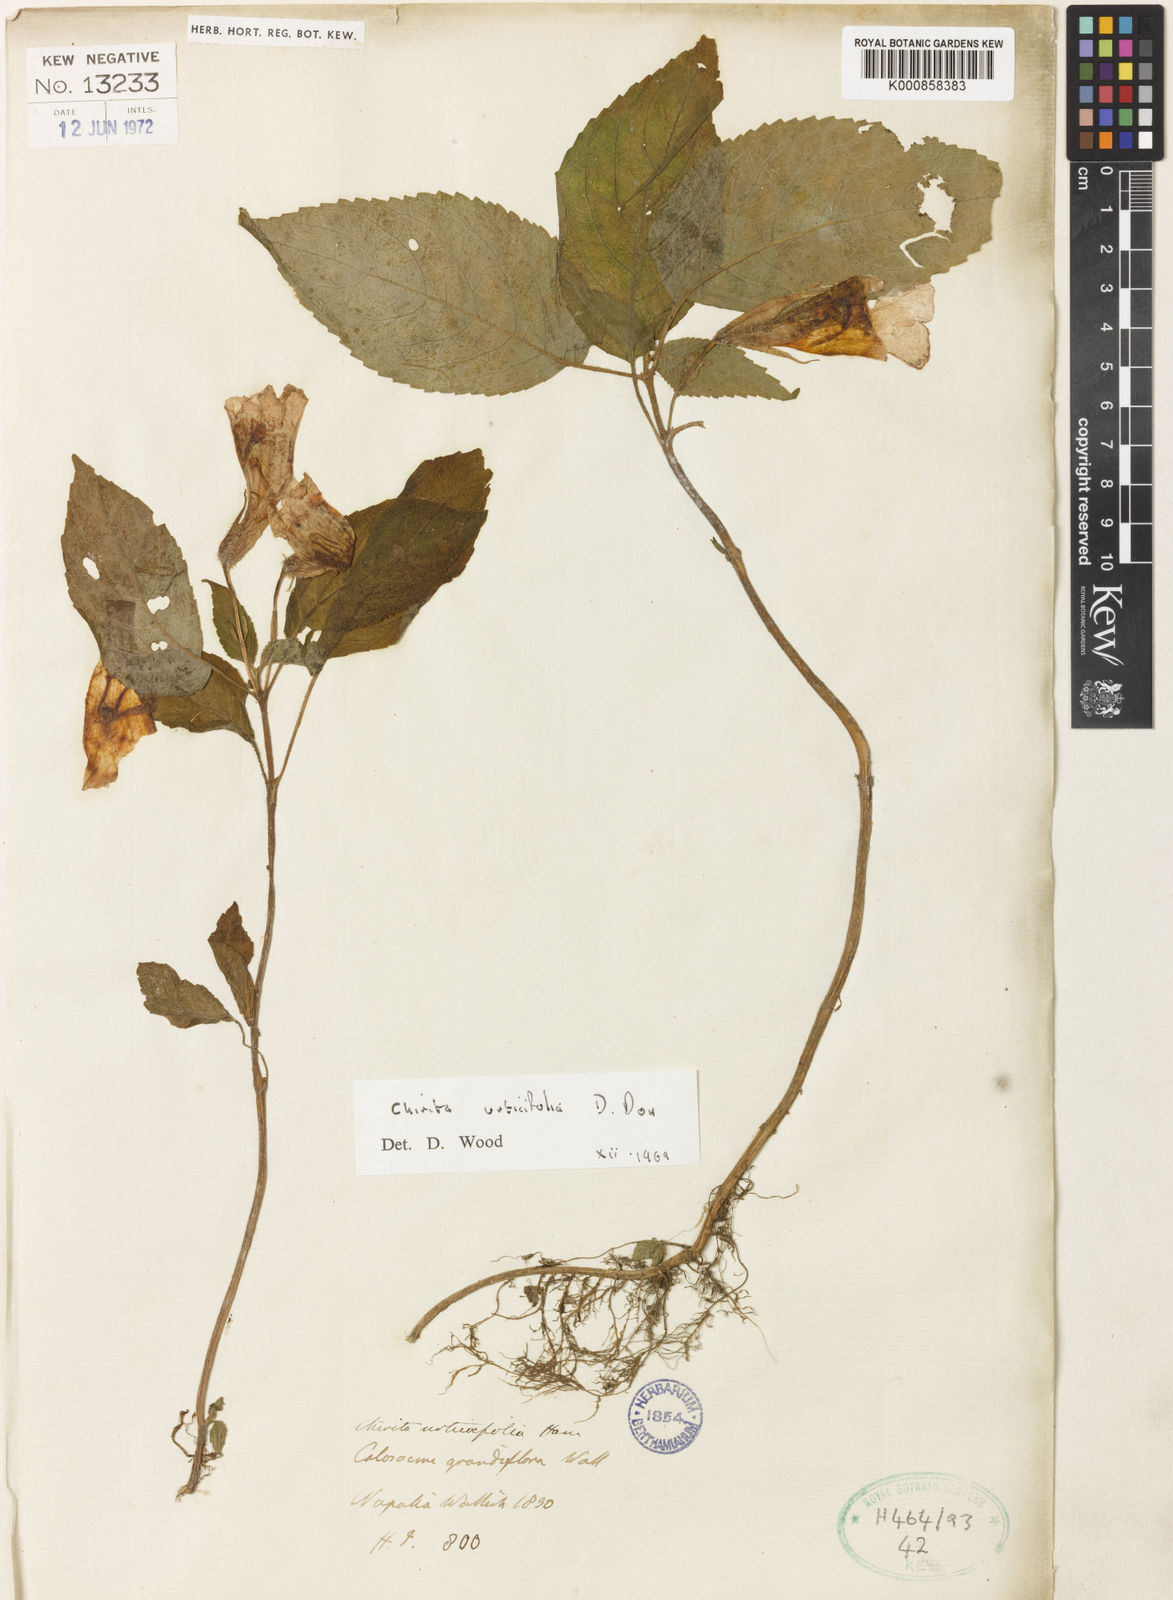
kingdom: Plantae
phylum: Tracheophyta
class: Magnoliopsida
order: Lamiales
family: Gesneriaceae
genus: Henckelia
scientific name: Henckelia urticifolia
